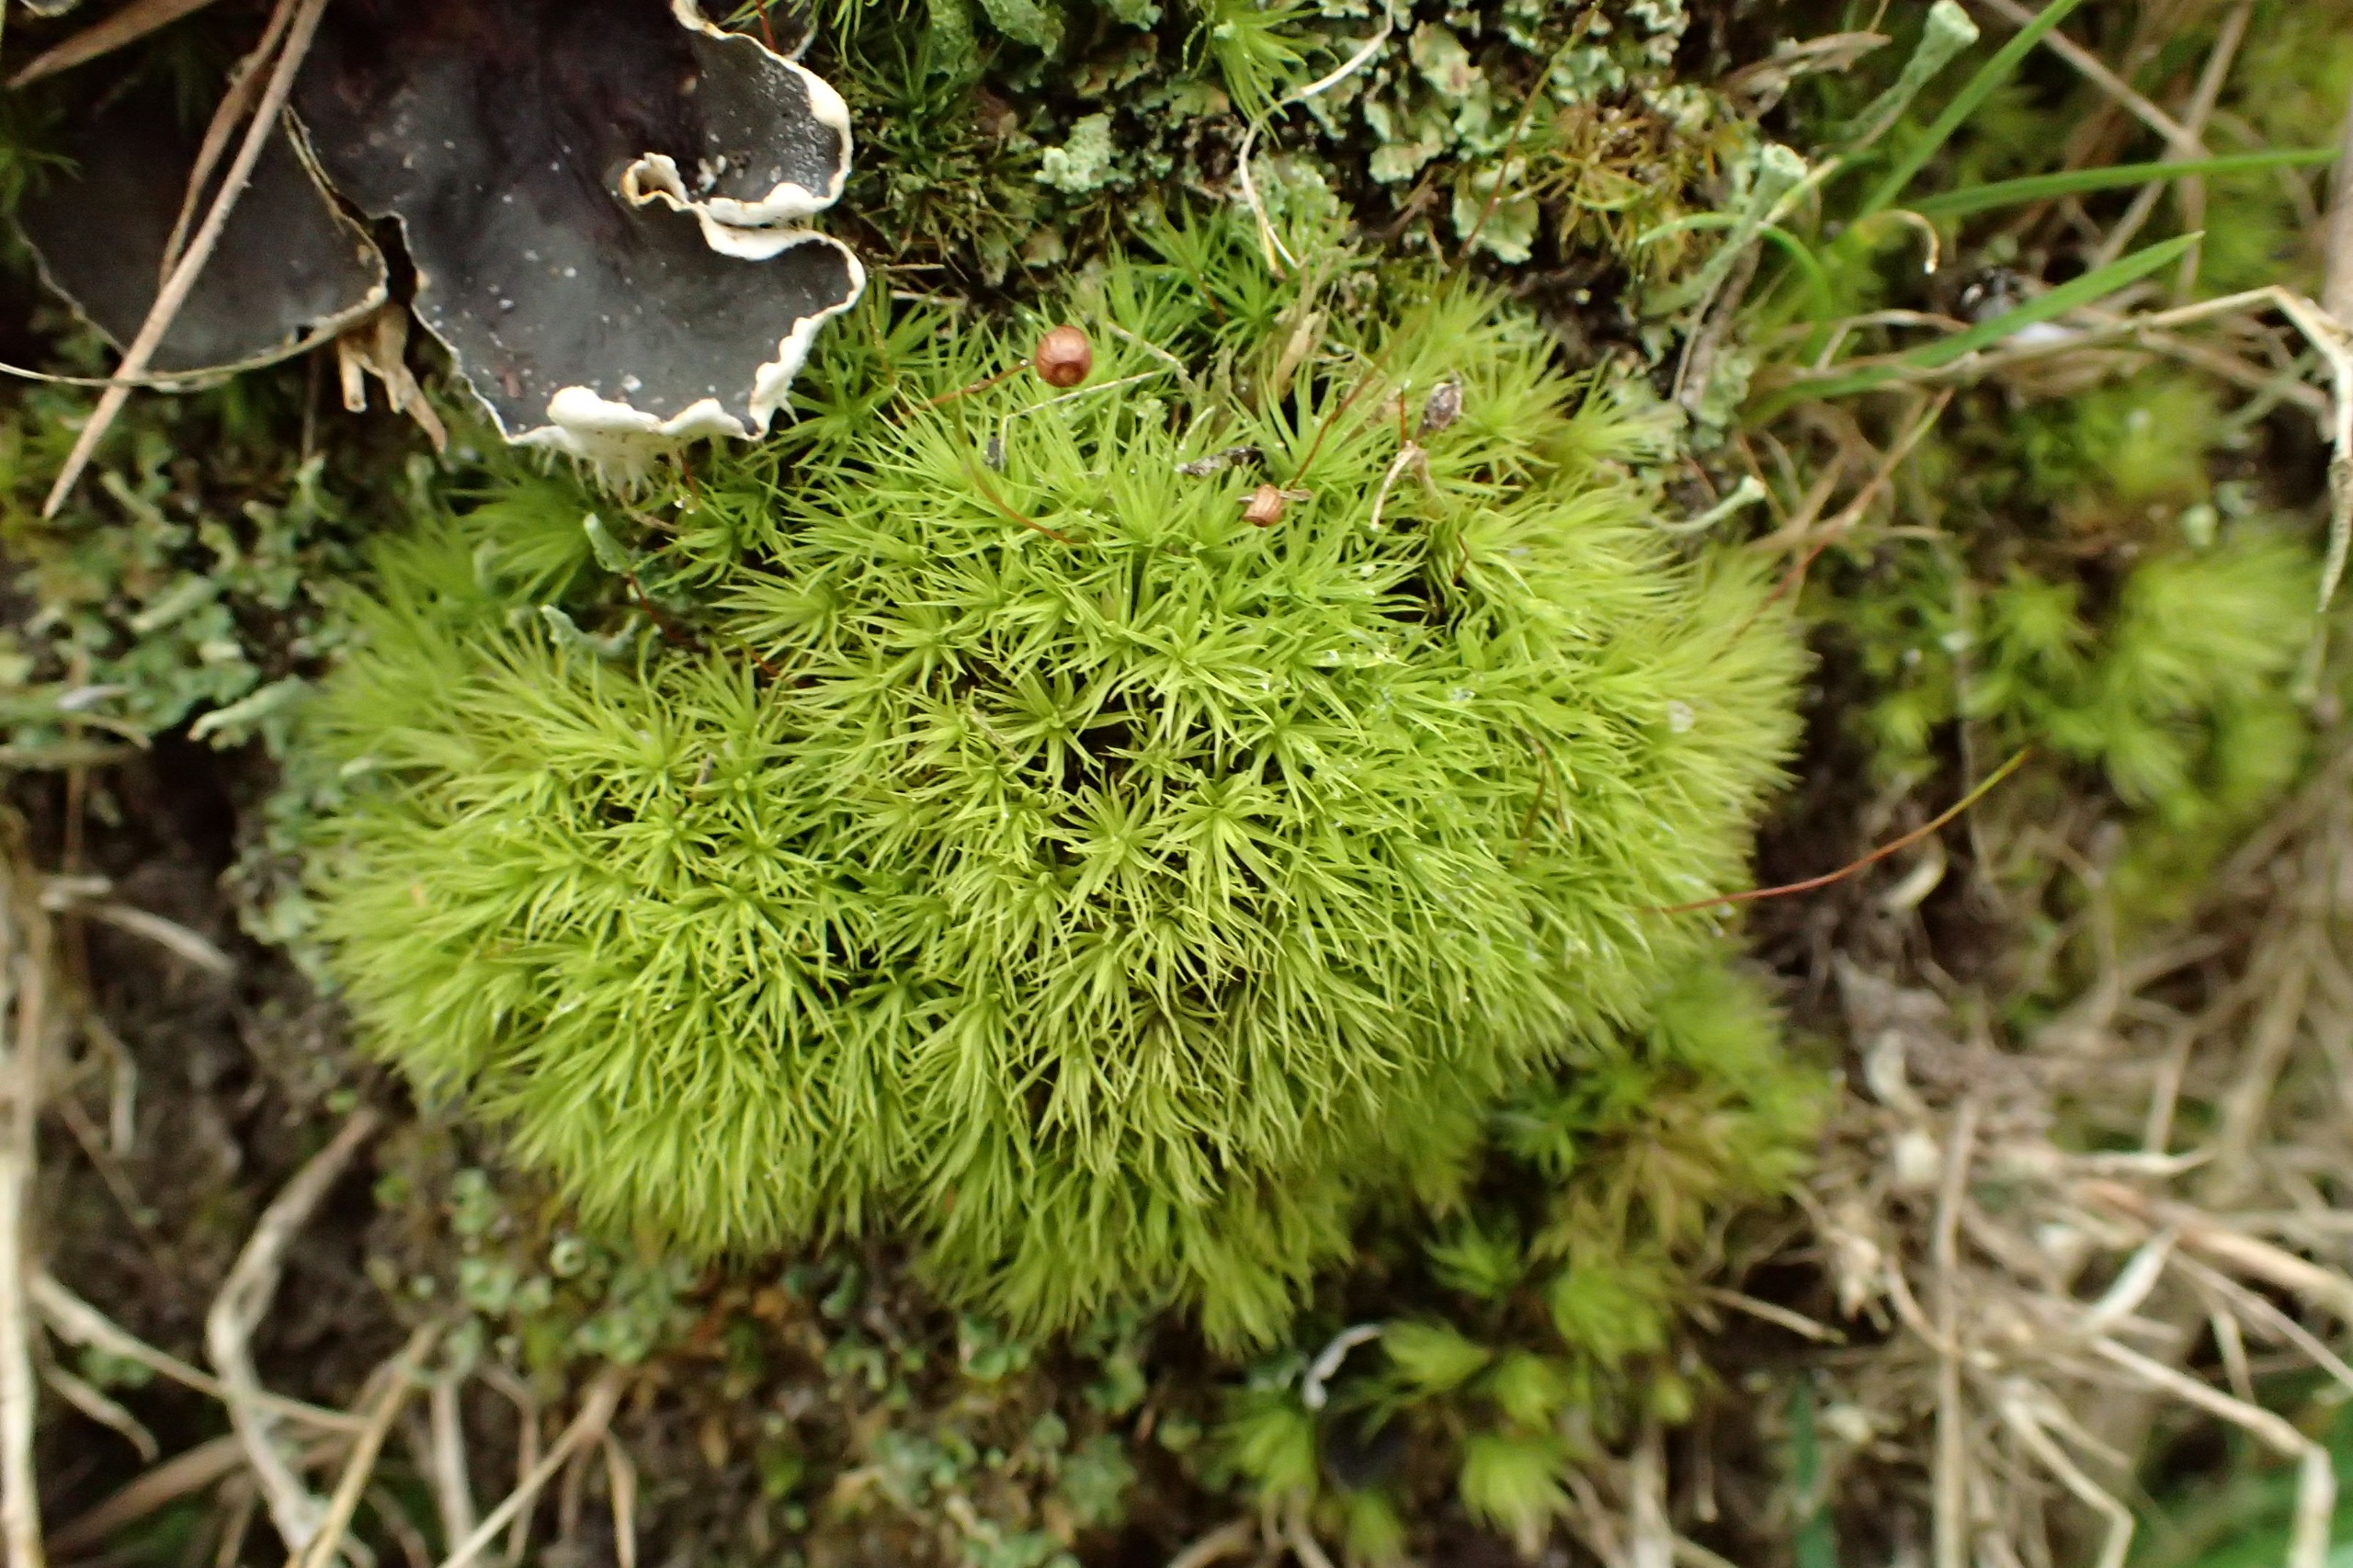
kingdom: Plantae
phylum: Bryophyta
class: Bryopsida
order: Bartramiales
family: Bartramiaceae
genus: Bartramia
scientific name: Bartramia pomiformis
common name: Gulgrøn kuglekapsel
